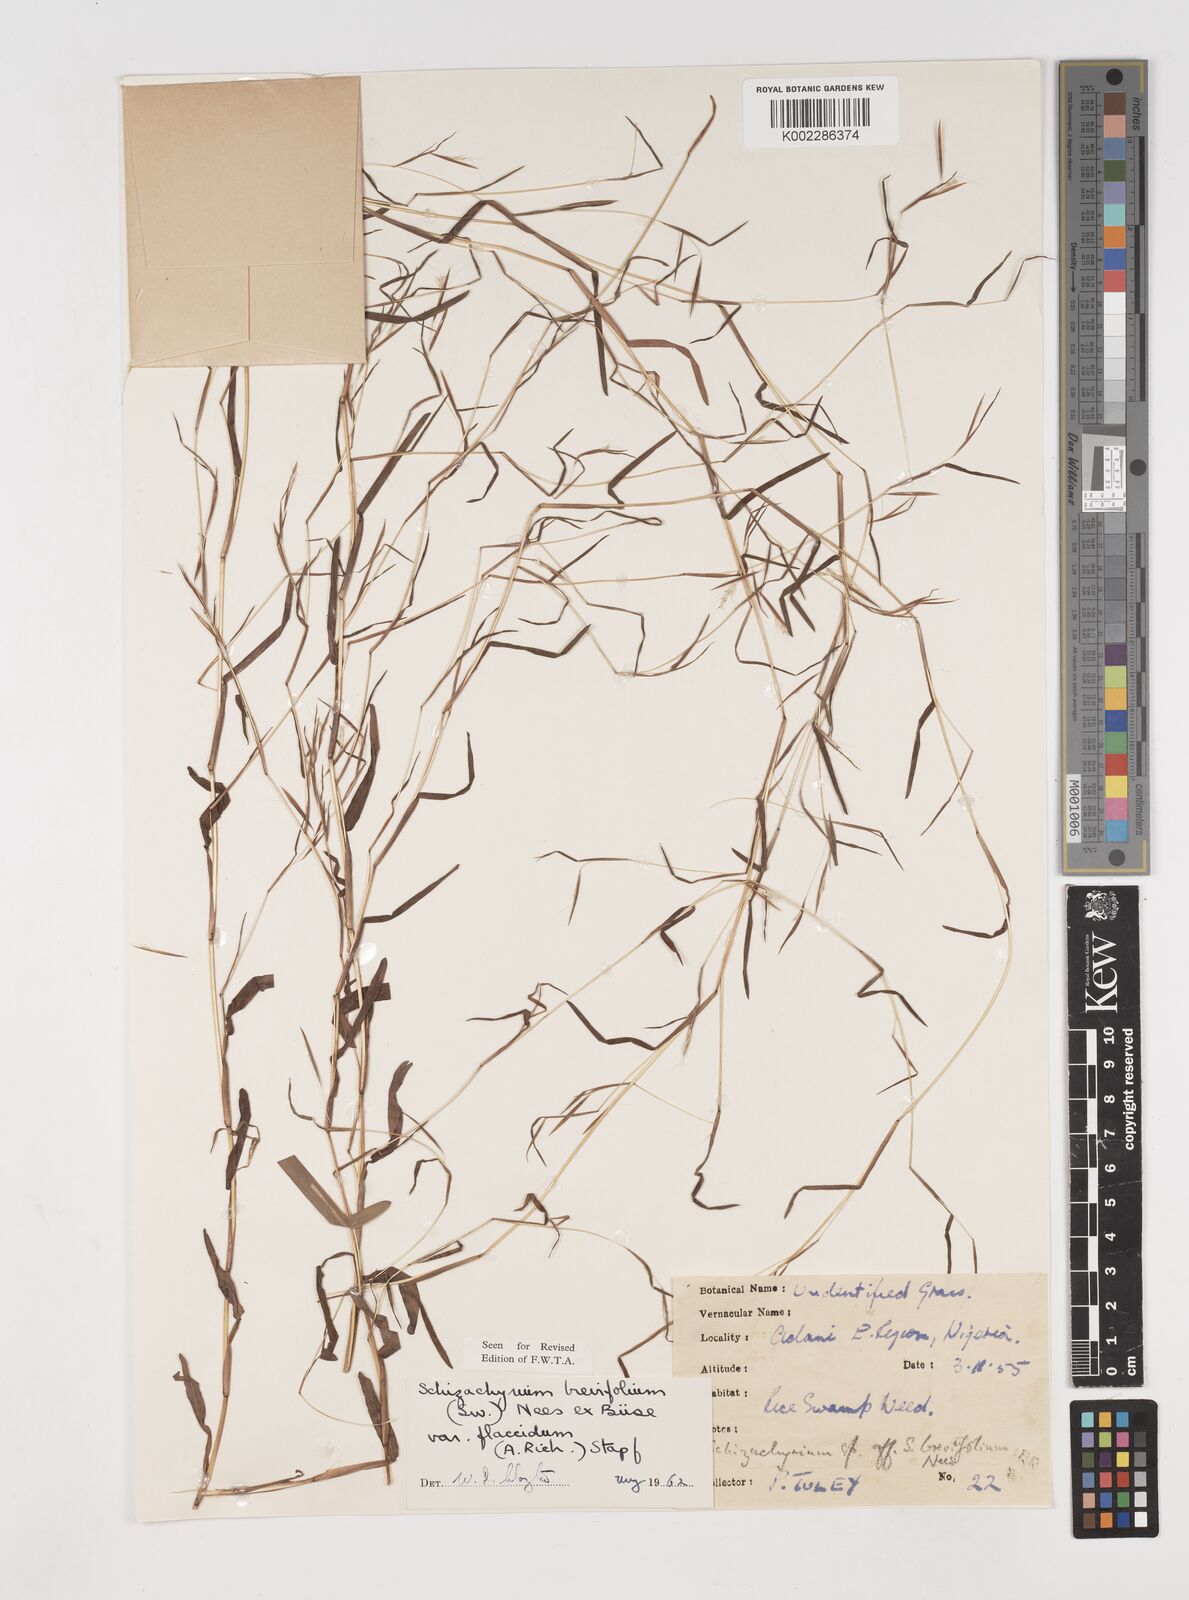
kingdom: Plantae
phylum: Tracheophyta
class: Liliopsida
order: Poales
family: Poaceae
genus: Schizachyrium
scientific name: Schizachyrium brevifolium
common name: Serillo dulce
